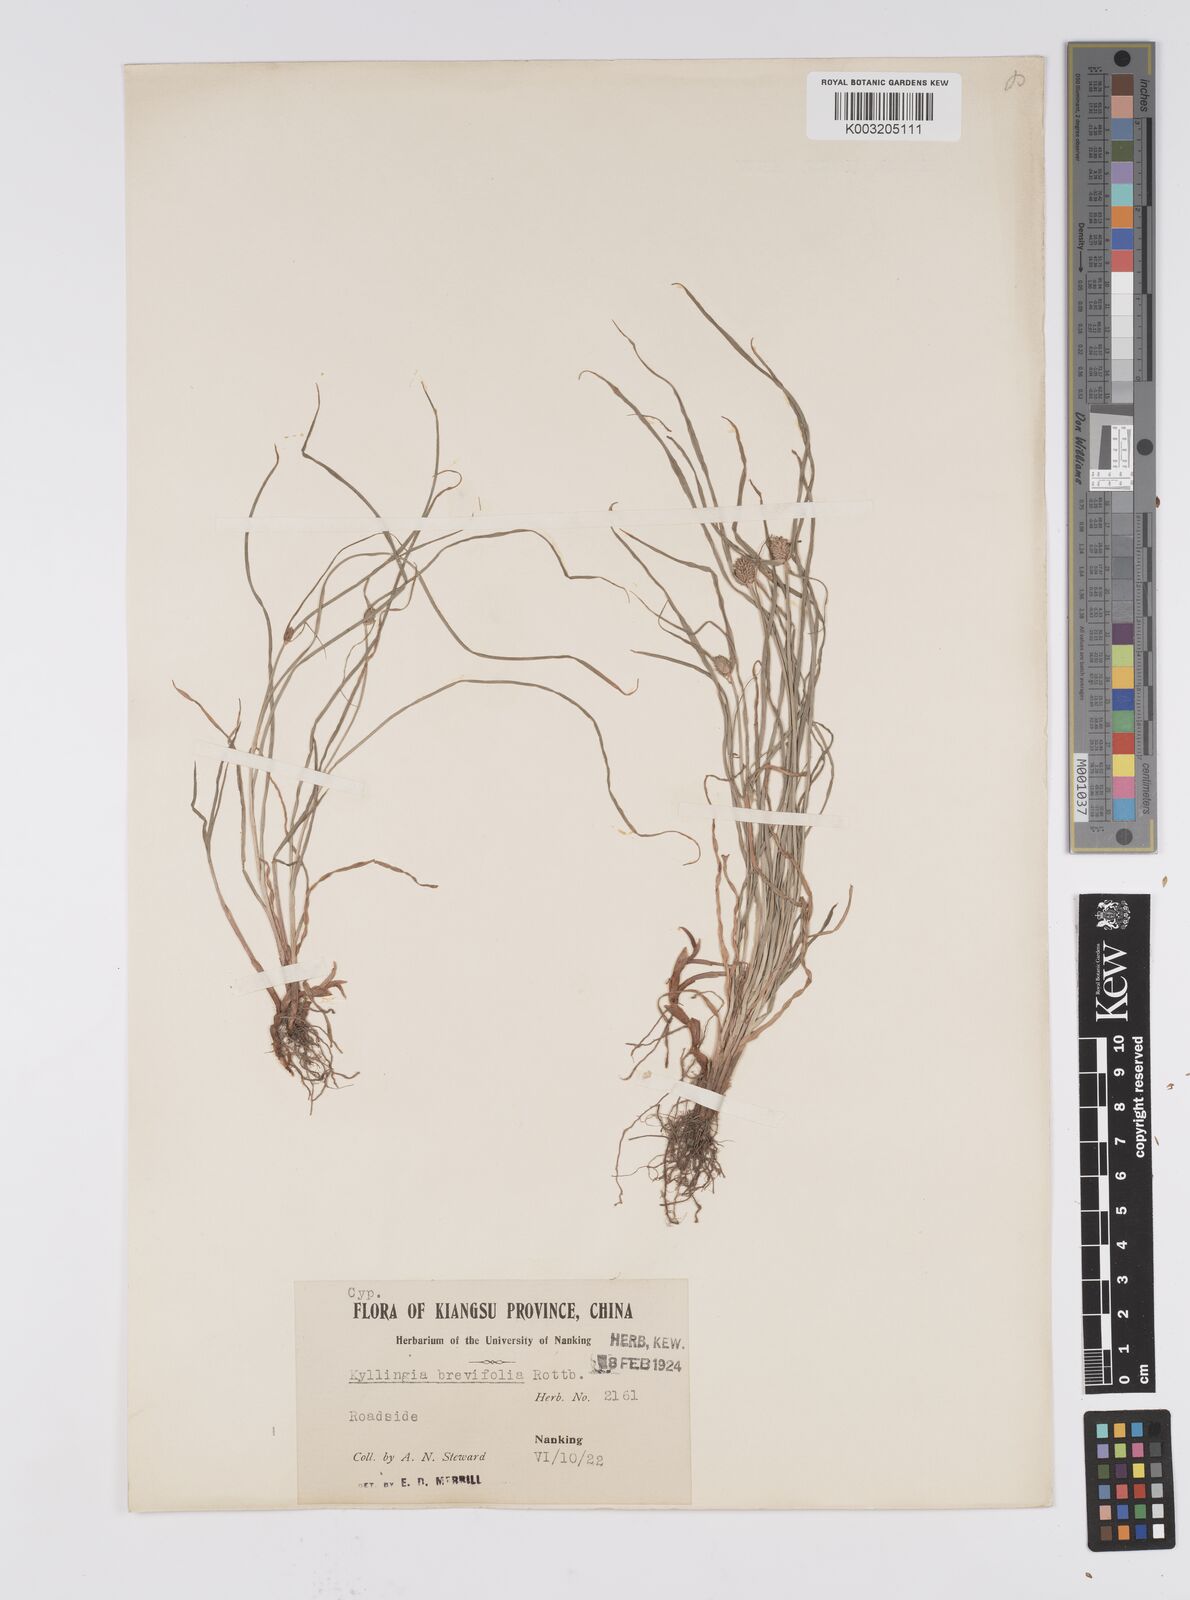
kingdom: Plantae
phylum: Tracheophyta
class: Liliopsida
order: Poales
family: Cyperaceae
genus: Cyperus
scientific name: Cyperus brevifolius
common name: Globe kyllinga
